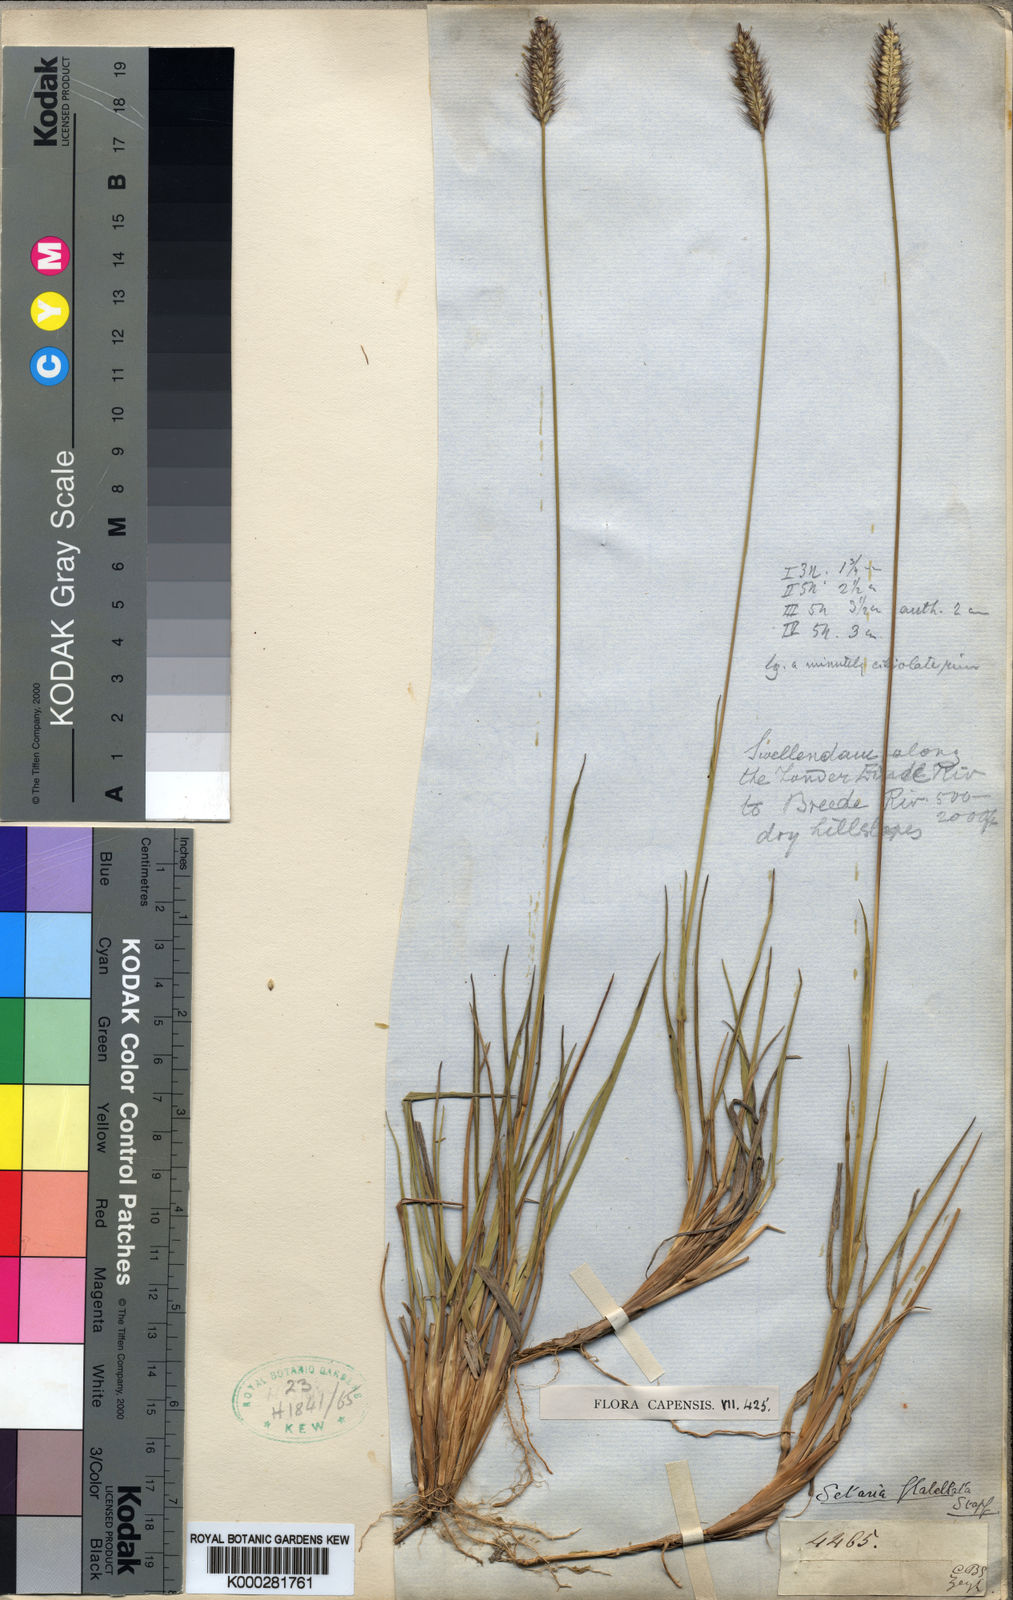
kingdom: Plantae
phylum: Tracheophyta
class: Liliopsida
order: Poales
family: Poaceae
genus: Setaria
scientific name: Setaria sphacelata
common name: African bristlegrass
